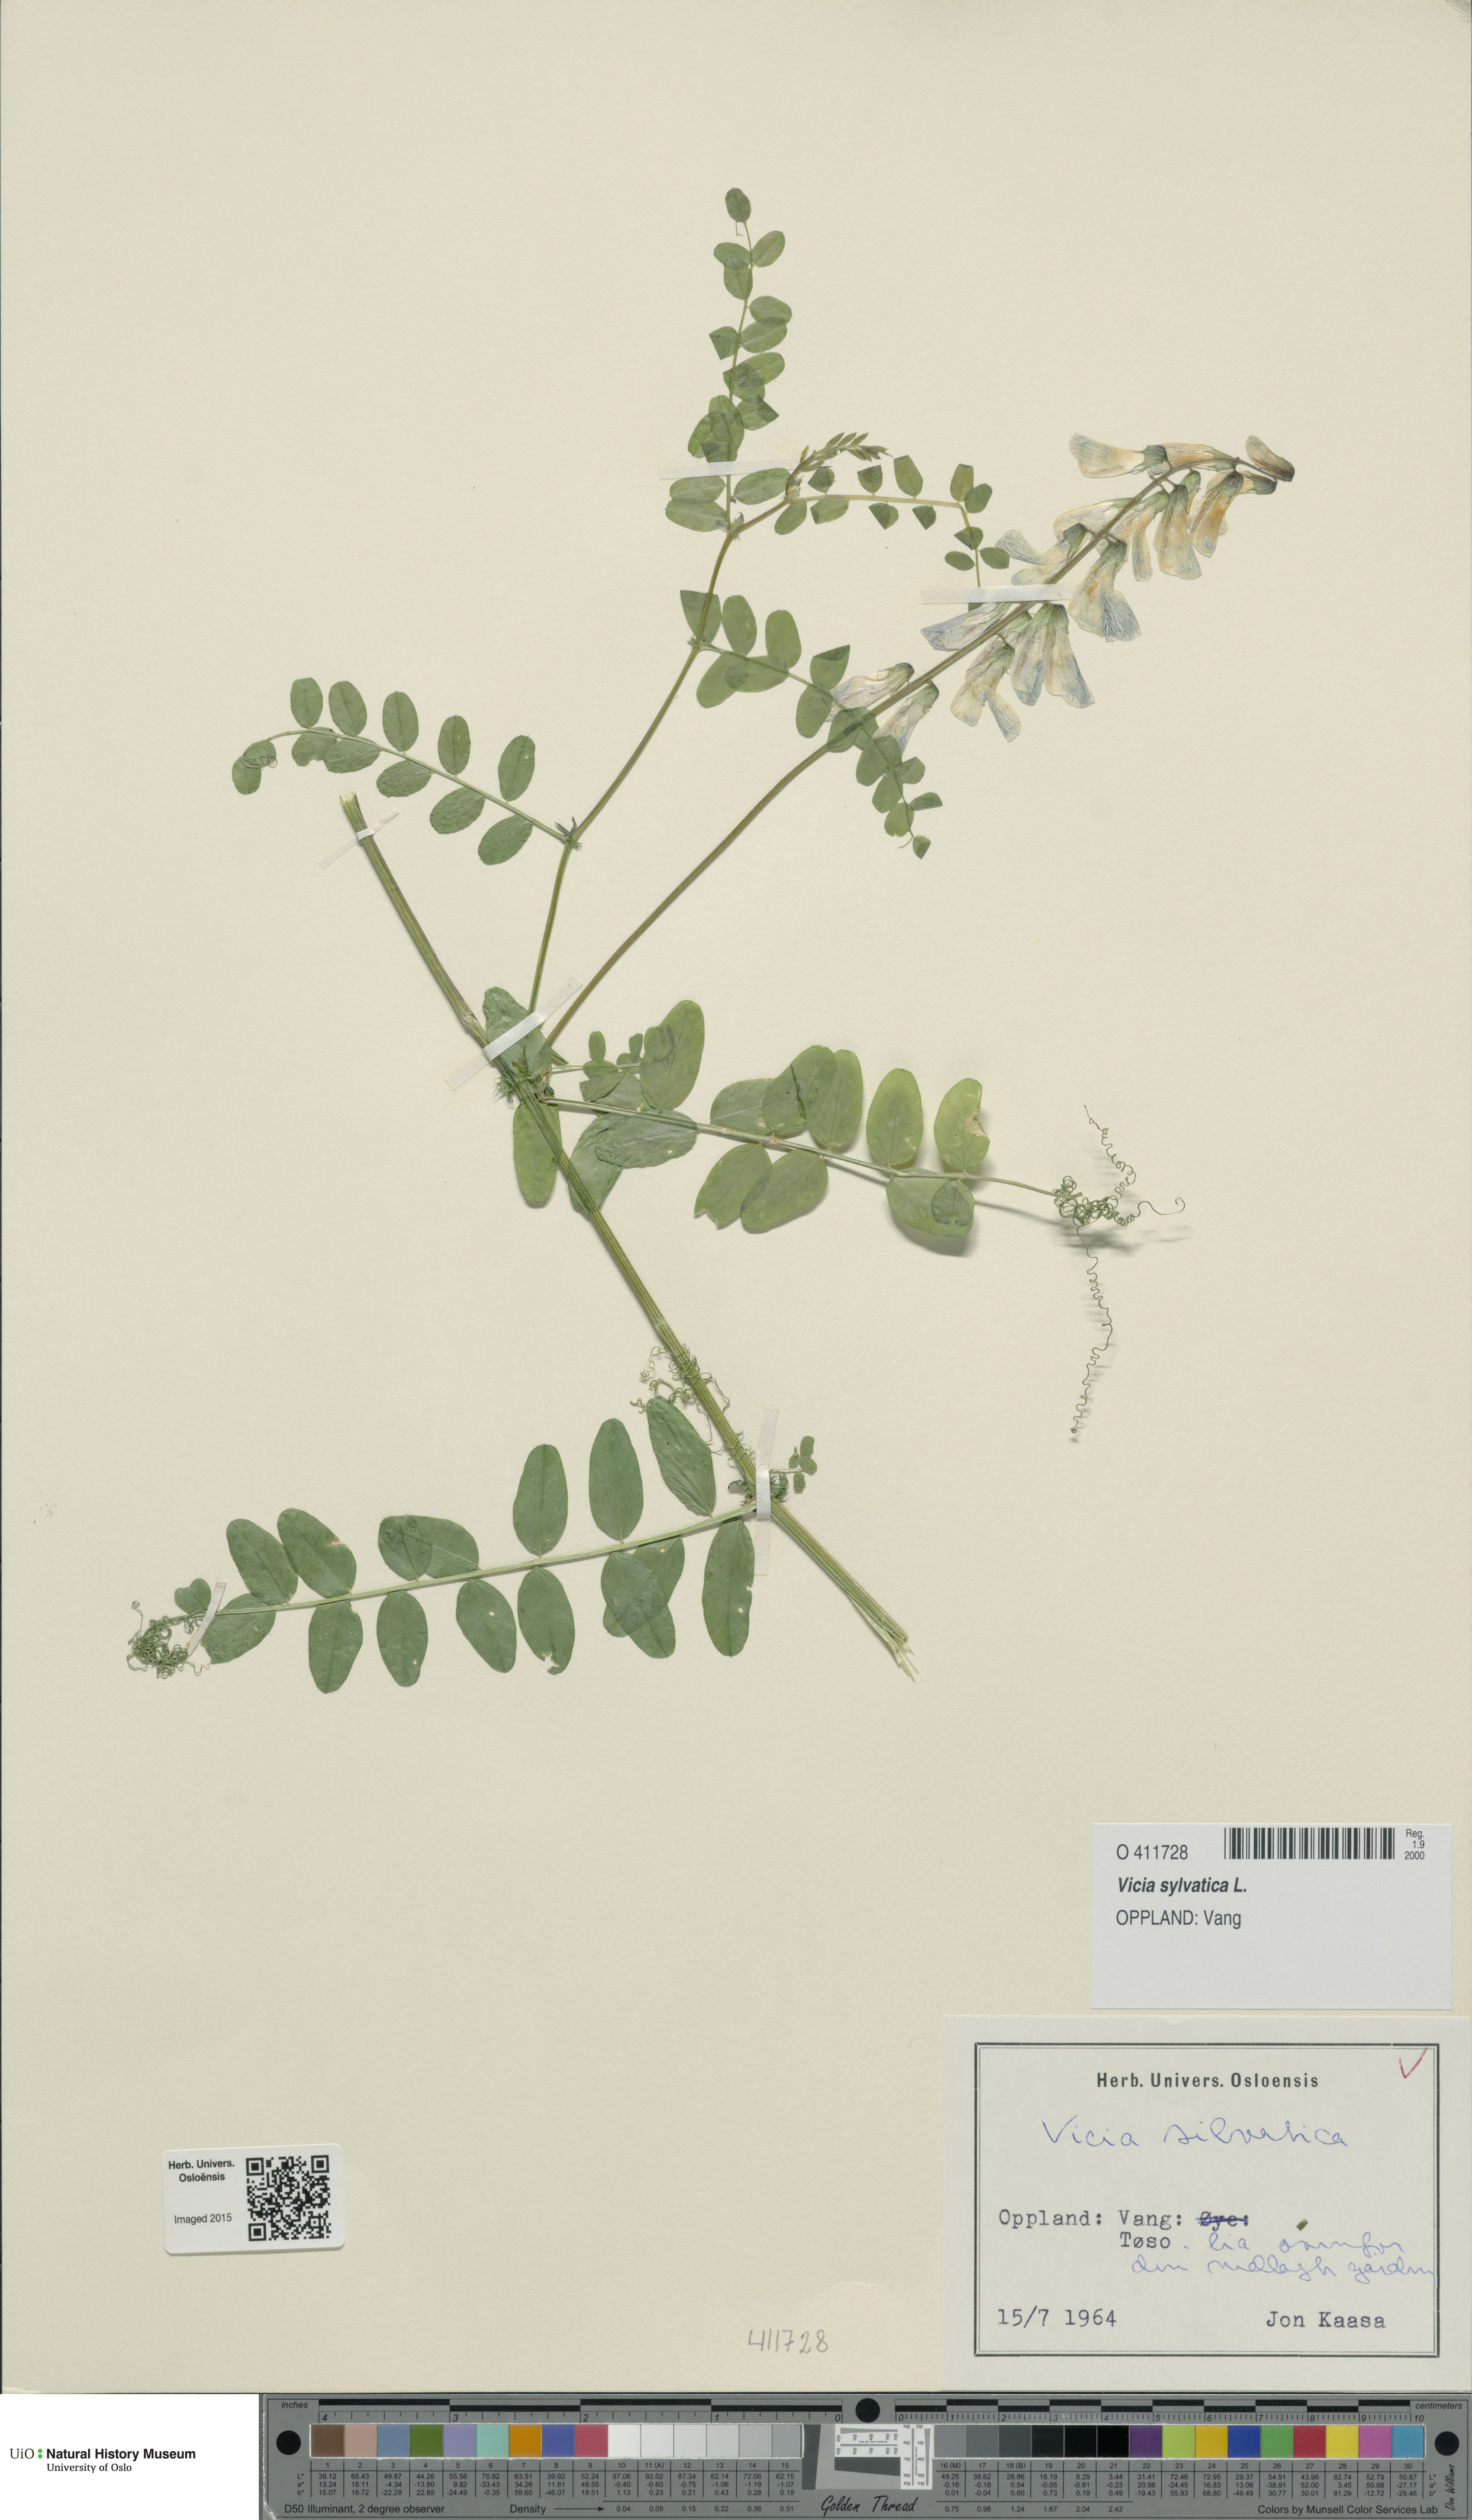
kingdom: Plantae
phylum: Tracheophyta
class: Magnoliopsida
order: Fabales
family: Fabaceae
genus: Vicia
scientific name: Vicia sylvatica
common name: Wood vetch
